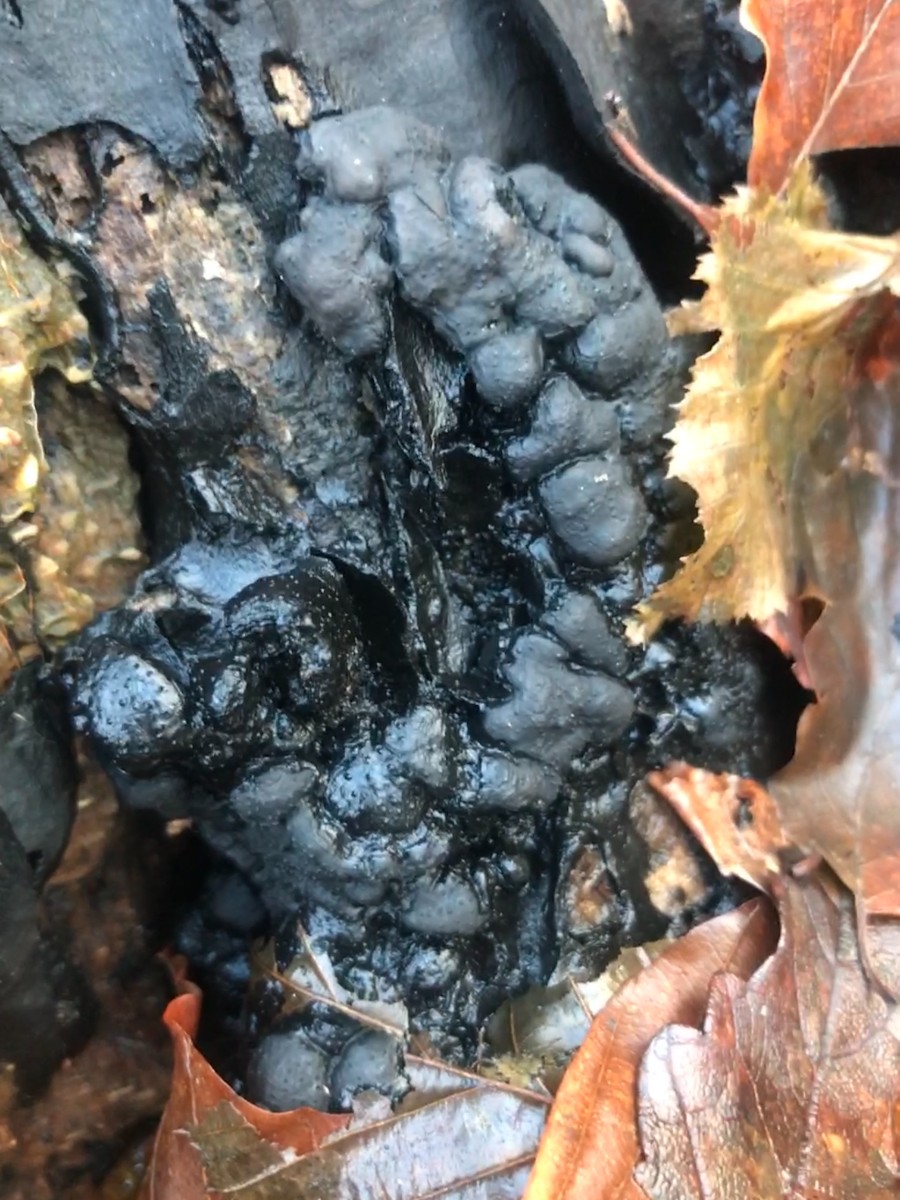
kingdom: Fungi
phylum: Ascomycota
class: Sordariomycetes
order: Xylariales
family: Xylariaceae
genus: Kretzschmaria
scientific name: Kretzschmaria deusta
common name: stor kulsvamp
